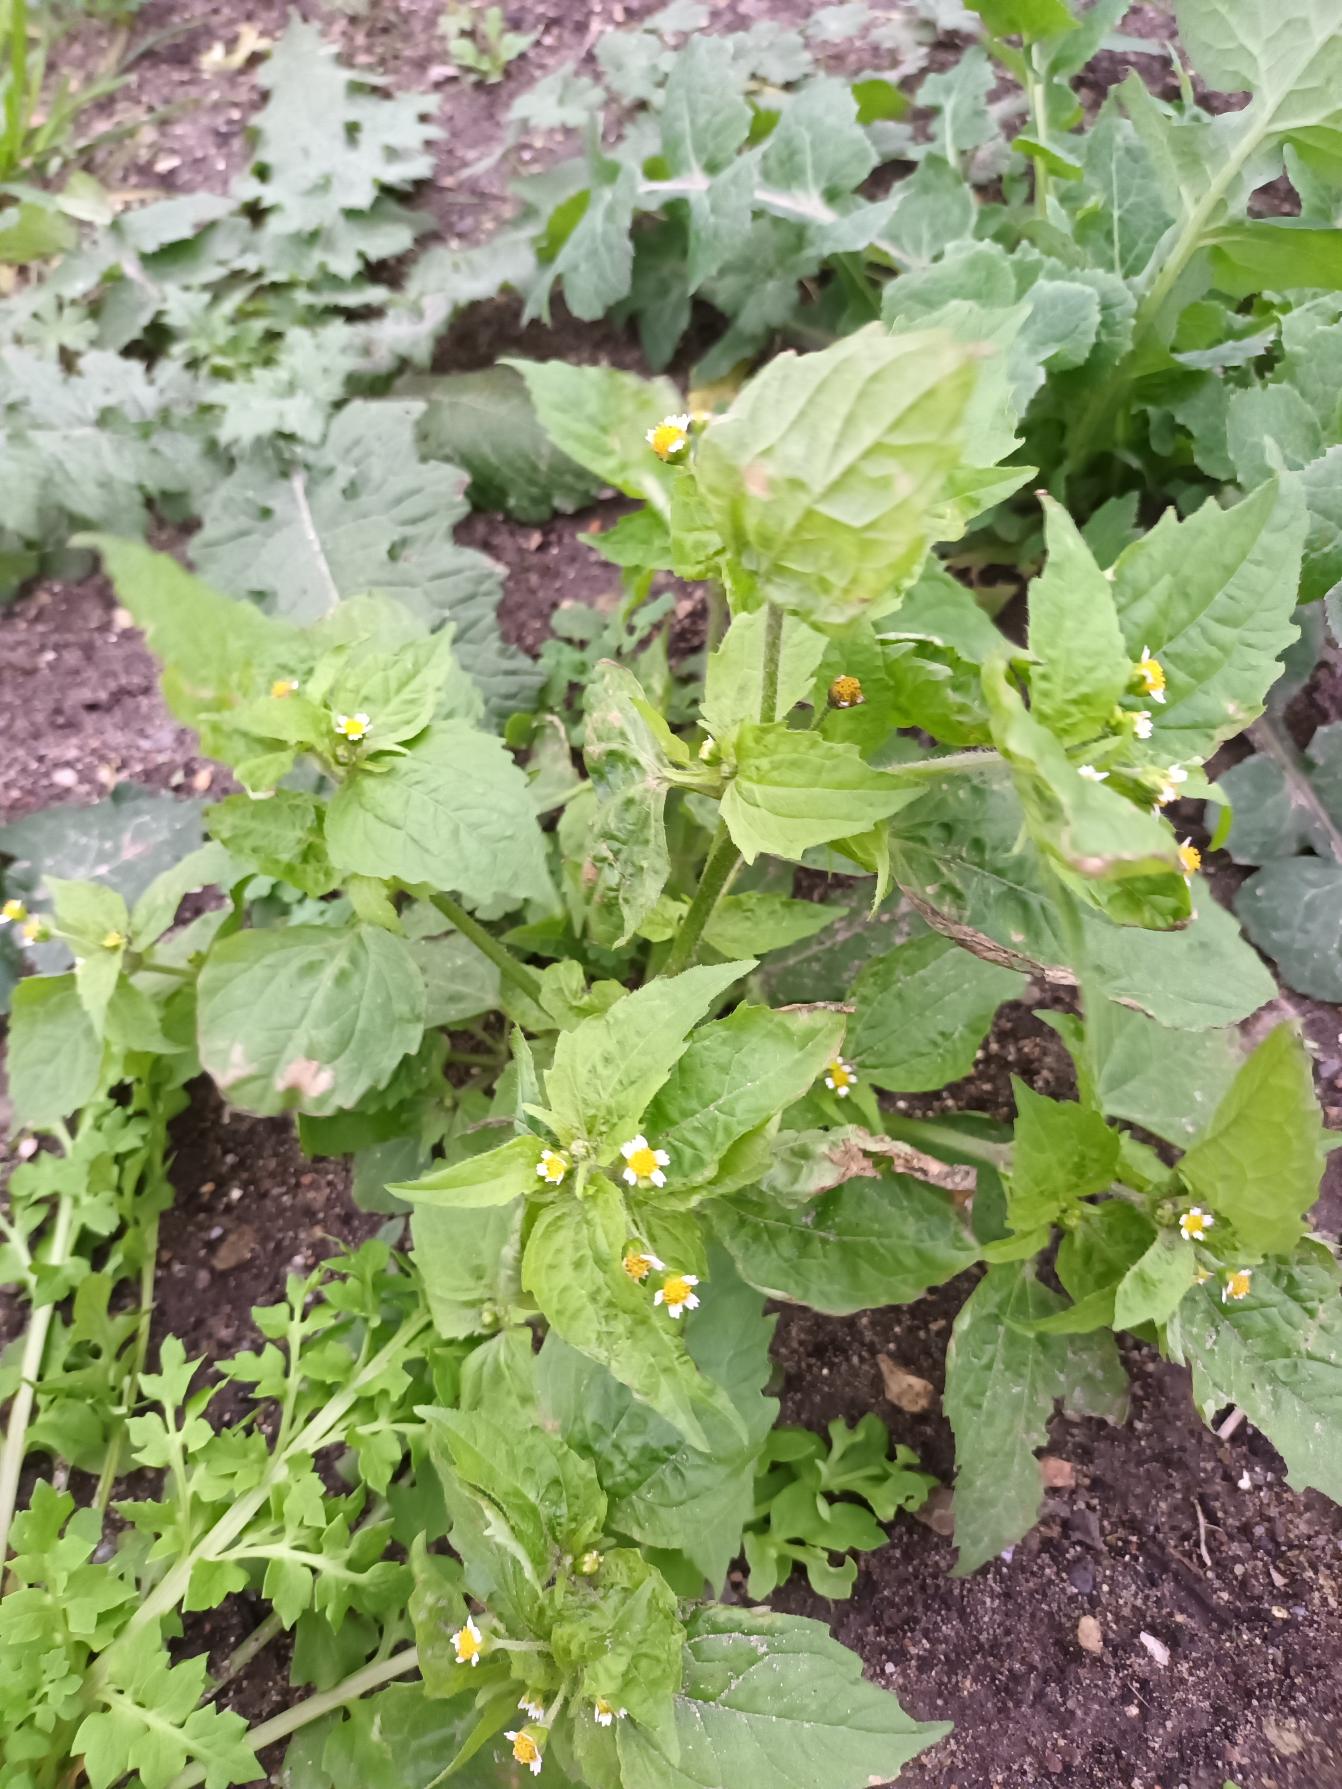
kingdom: Plantae
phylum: Tracheophyta
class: Magnoliopsida
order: Asterales
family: Asteraceae
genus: Galinsoga
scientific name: Galinsoga quadriradiata
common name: Kirtel-kortstråle
